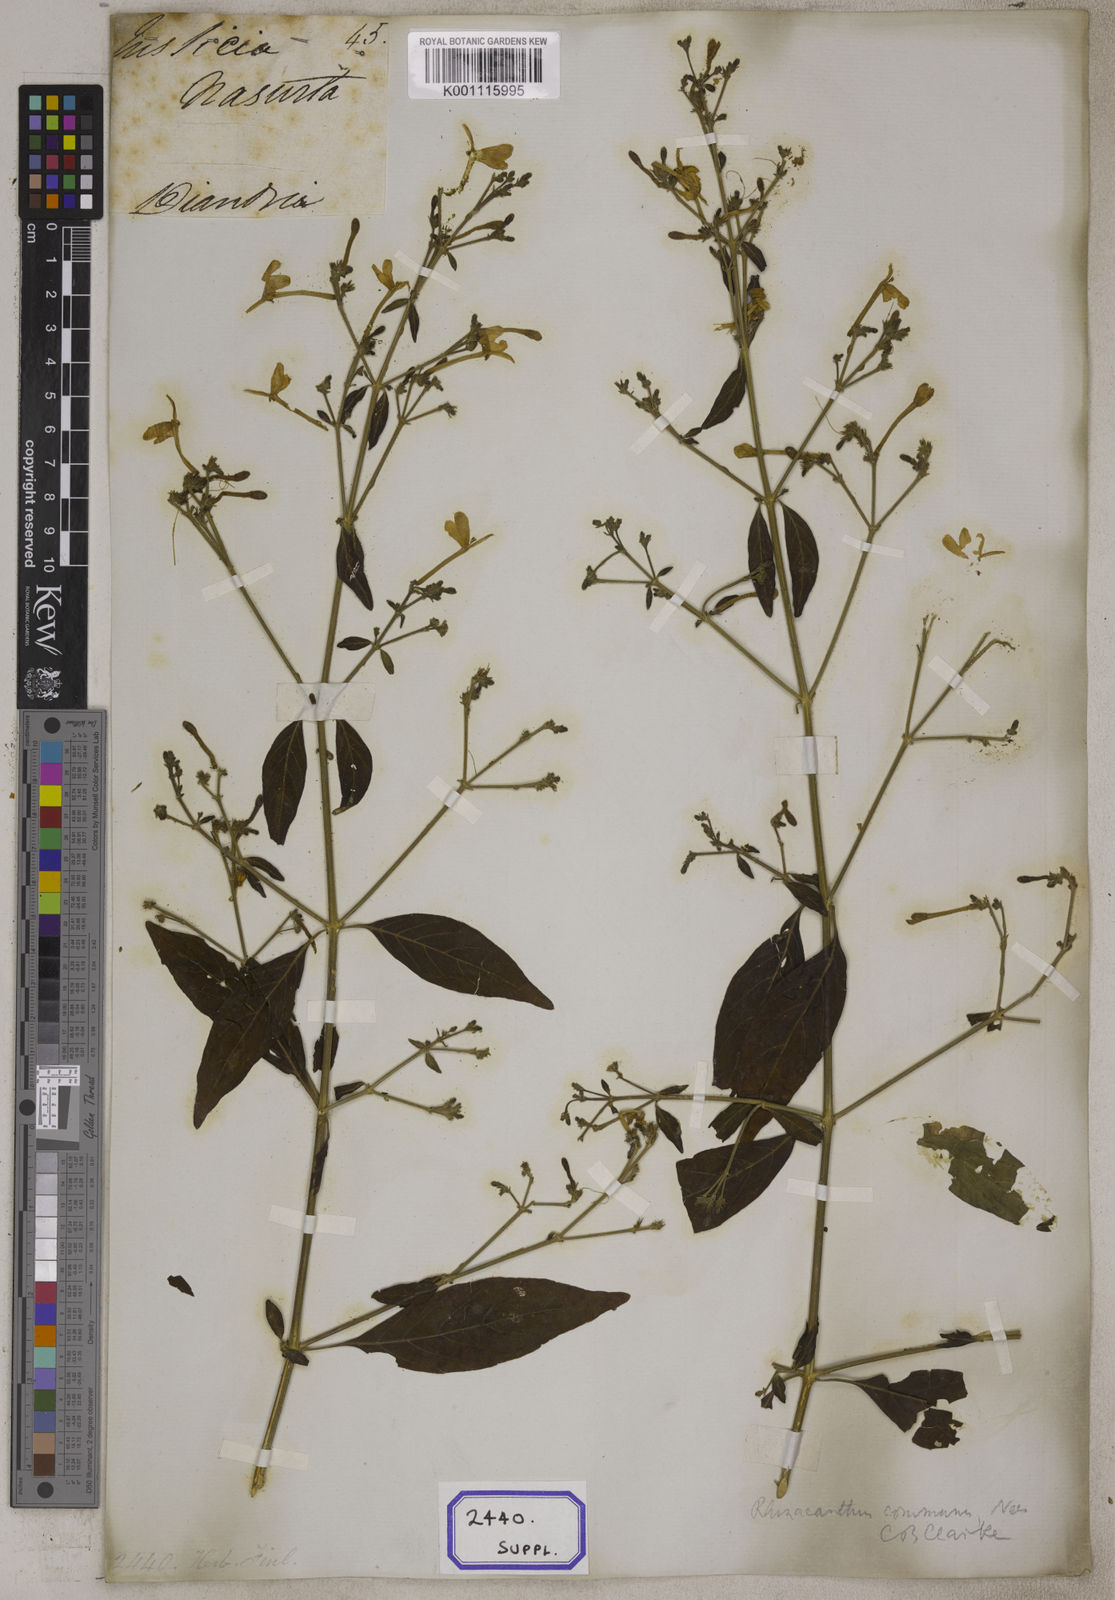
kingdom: Plantae
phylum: Tracheophyta
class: Magnoliopsida
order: Lamiales
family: Acanthaceae
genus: Rhinacanthus
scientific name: Rhinacanthus nasutus
